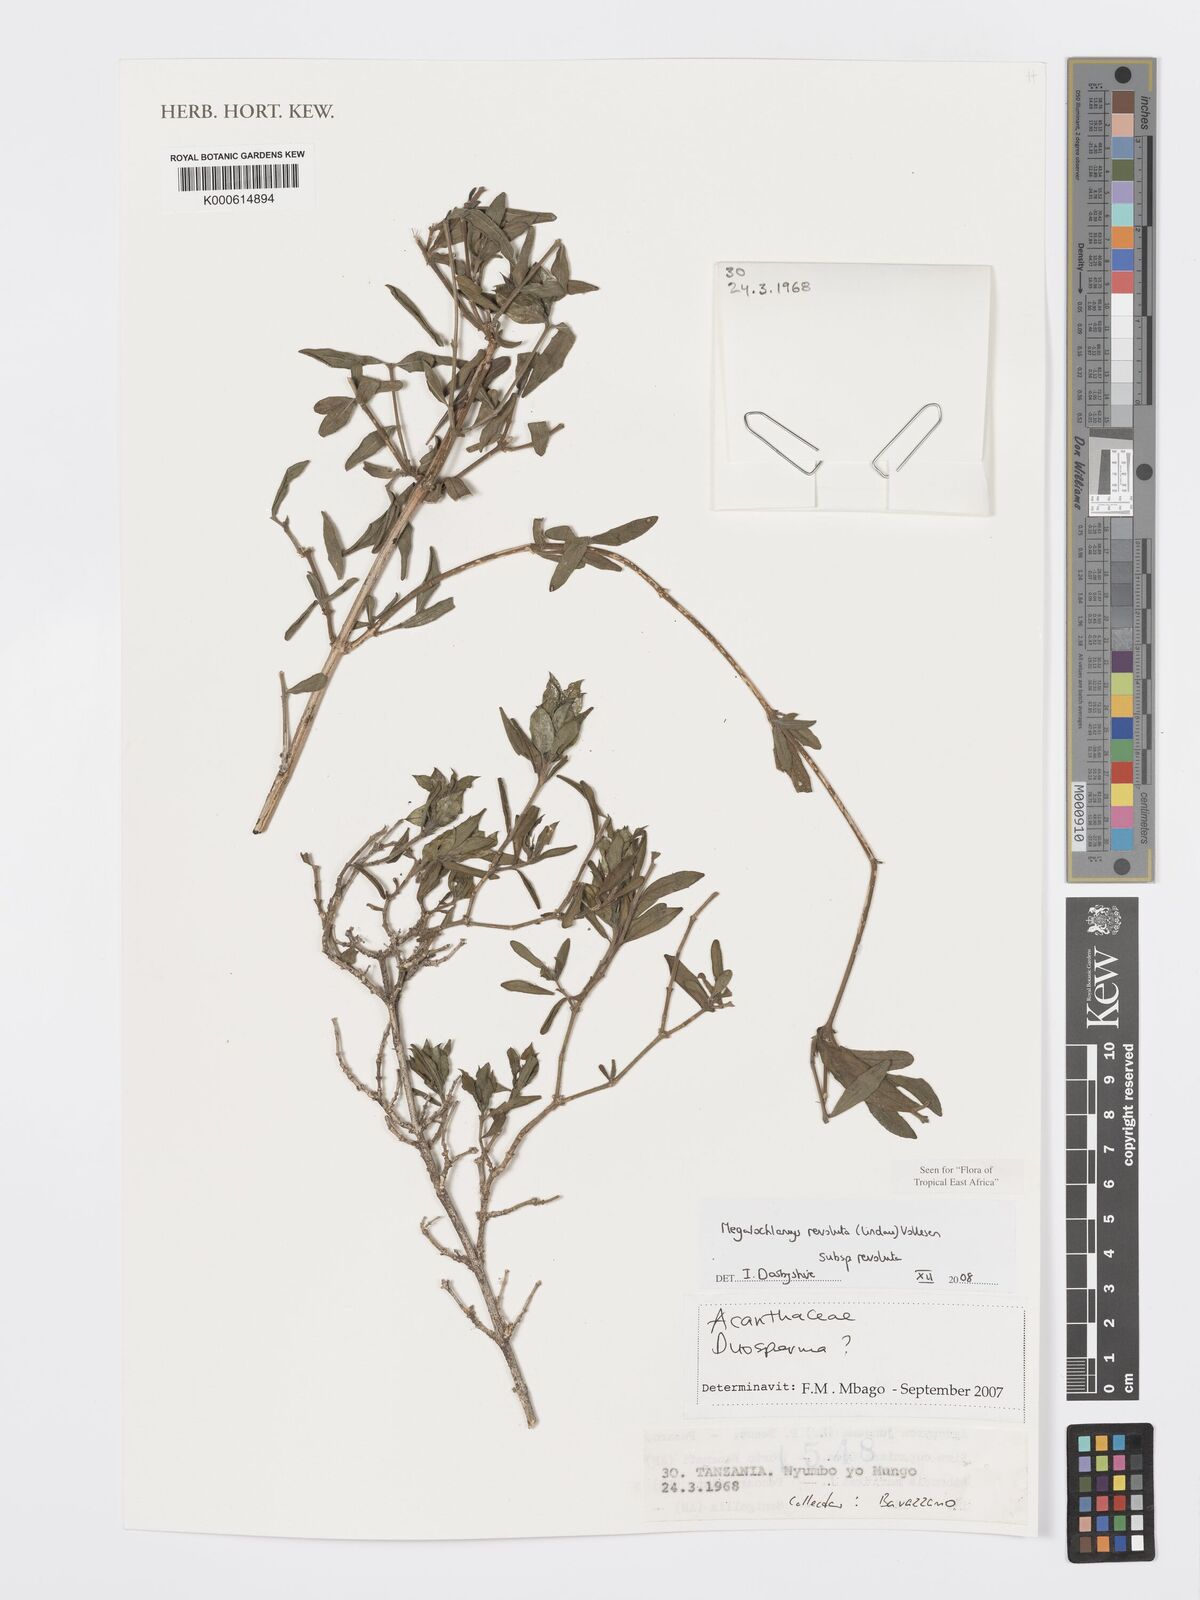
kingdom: Plantae
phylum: Tracheophyta
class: Magnoliopsida
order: Lamiales
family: Acanthaceae
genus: Megalochlamys
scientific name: Megalochlamys revoluta
